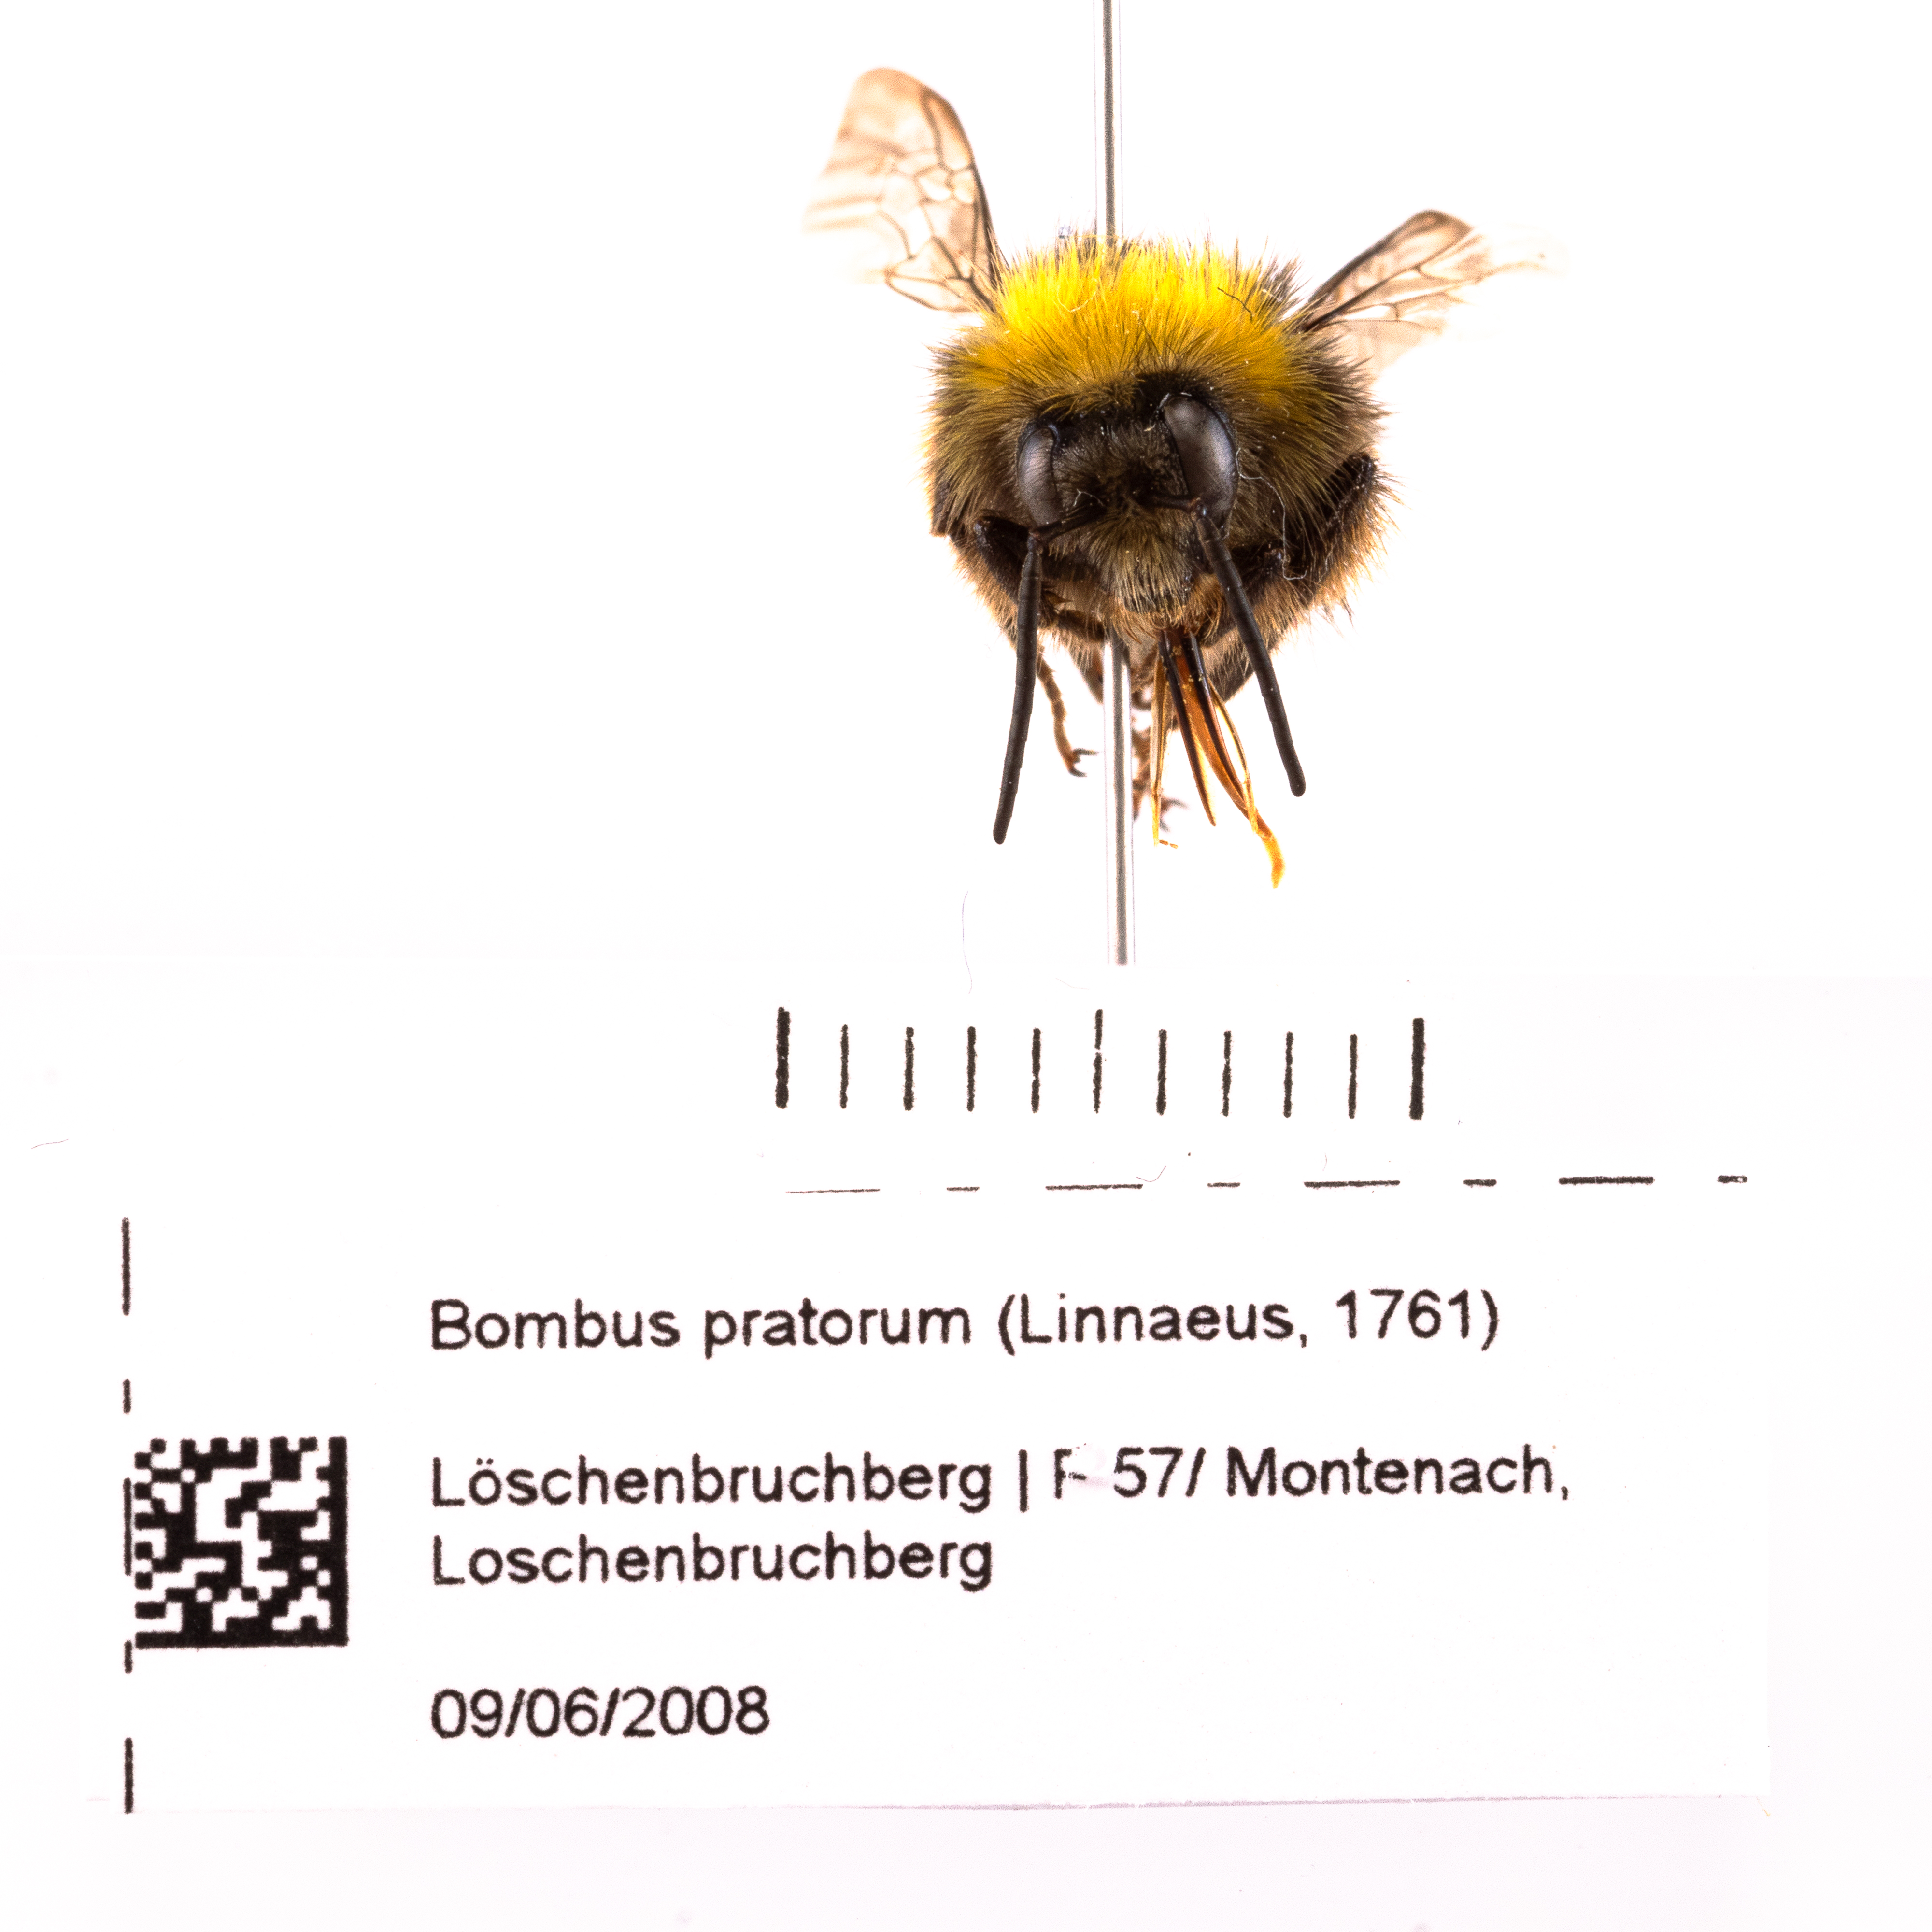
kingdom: Animalia
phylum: Arthropoda
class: Insecta
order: Hymenoptera
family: Apidae
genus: Bombus
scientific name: Bombus pratorum
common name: Early humble-bee
